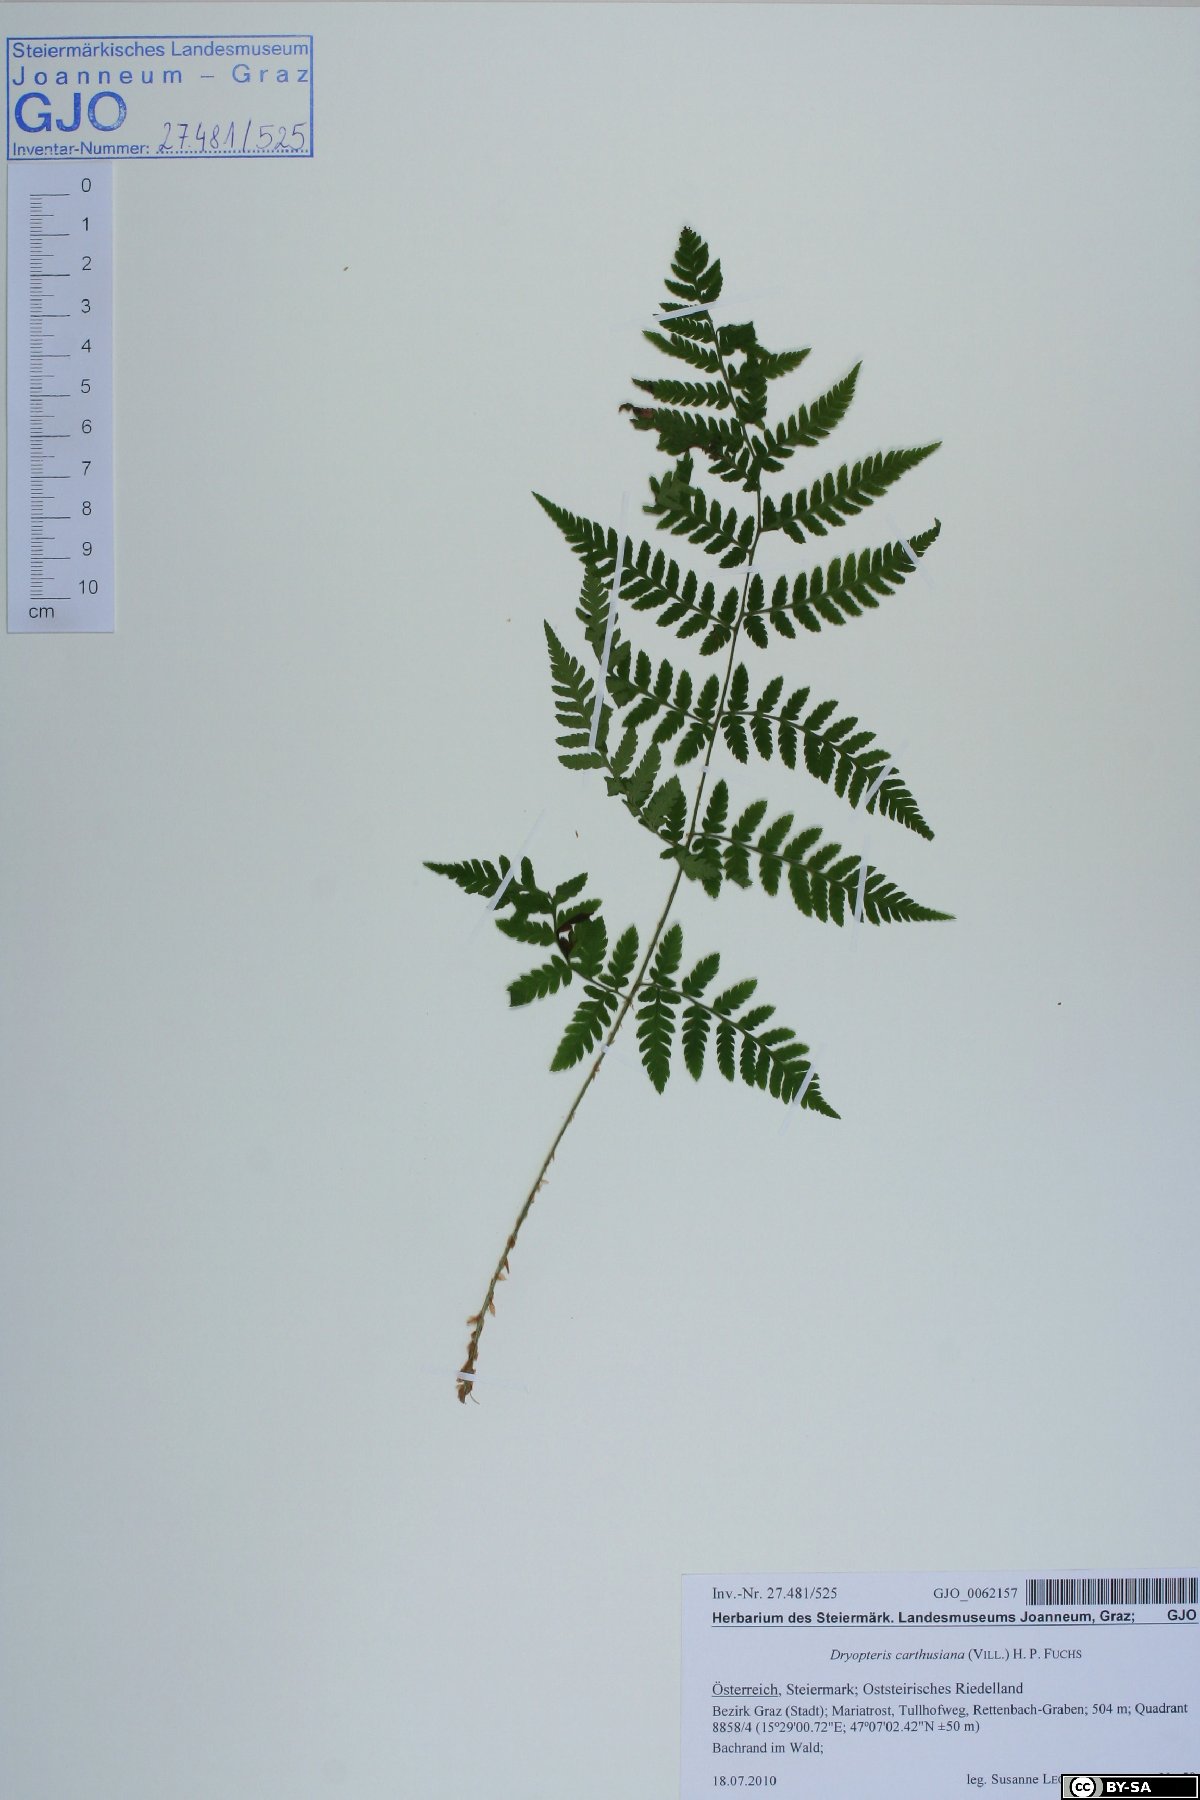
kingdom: Plantae
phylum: Tracheophyta
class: Polypodiopsida
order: Polypodiales
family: Dryopteridaceae
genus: Dryopteris
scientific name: Dryopteris carthusiana
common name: Narrow buckler-fern
